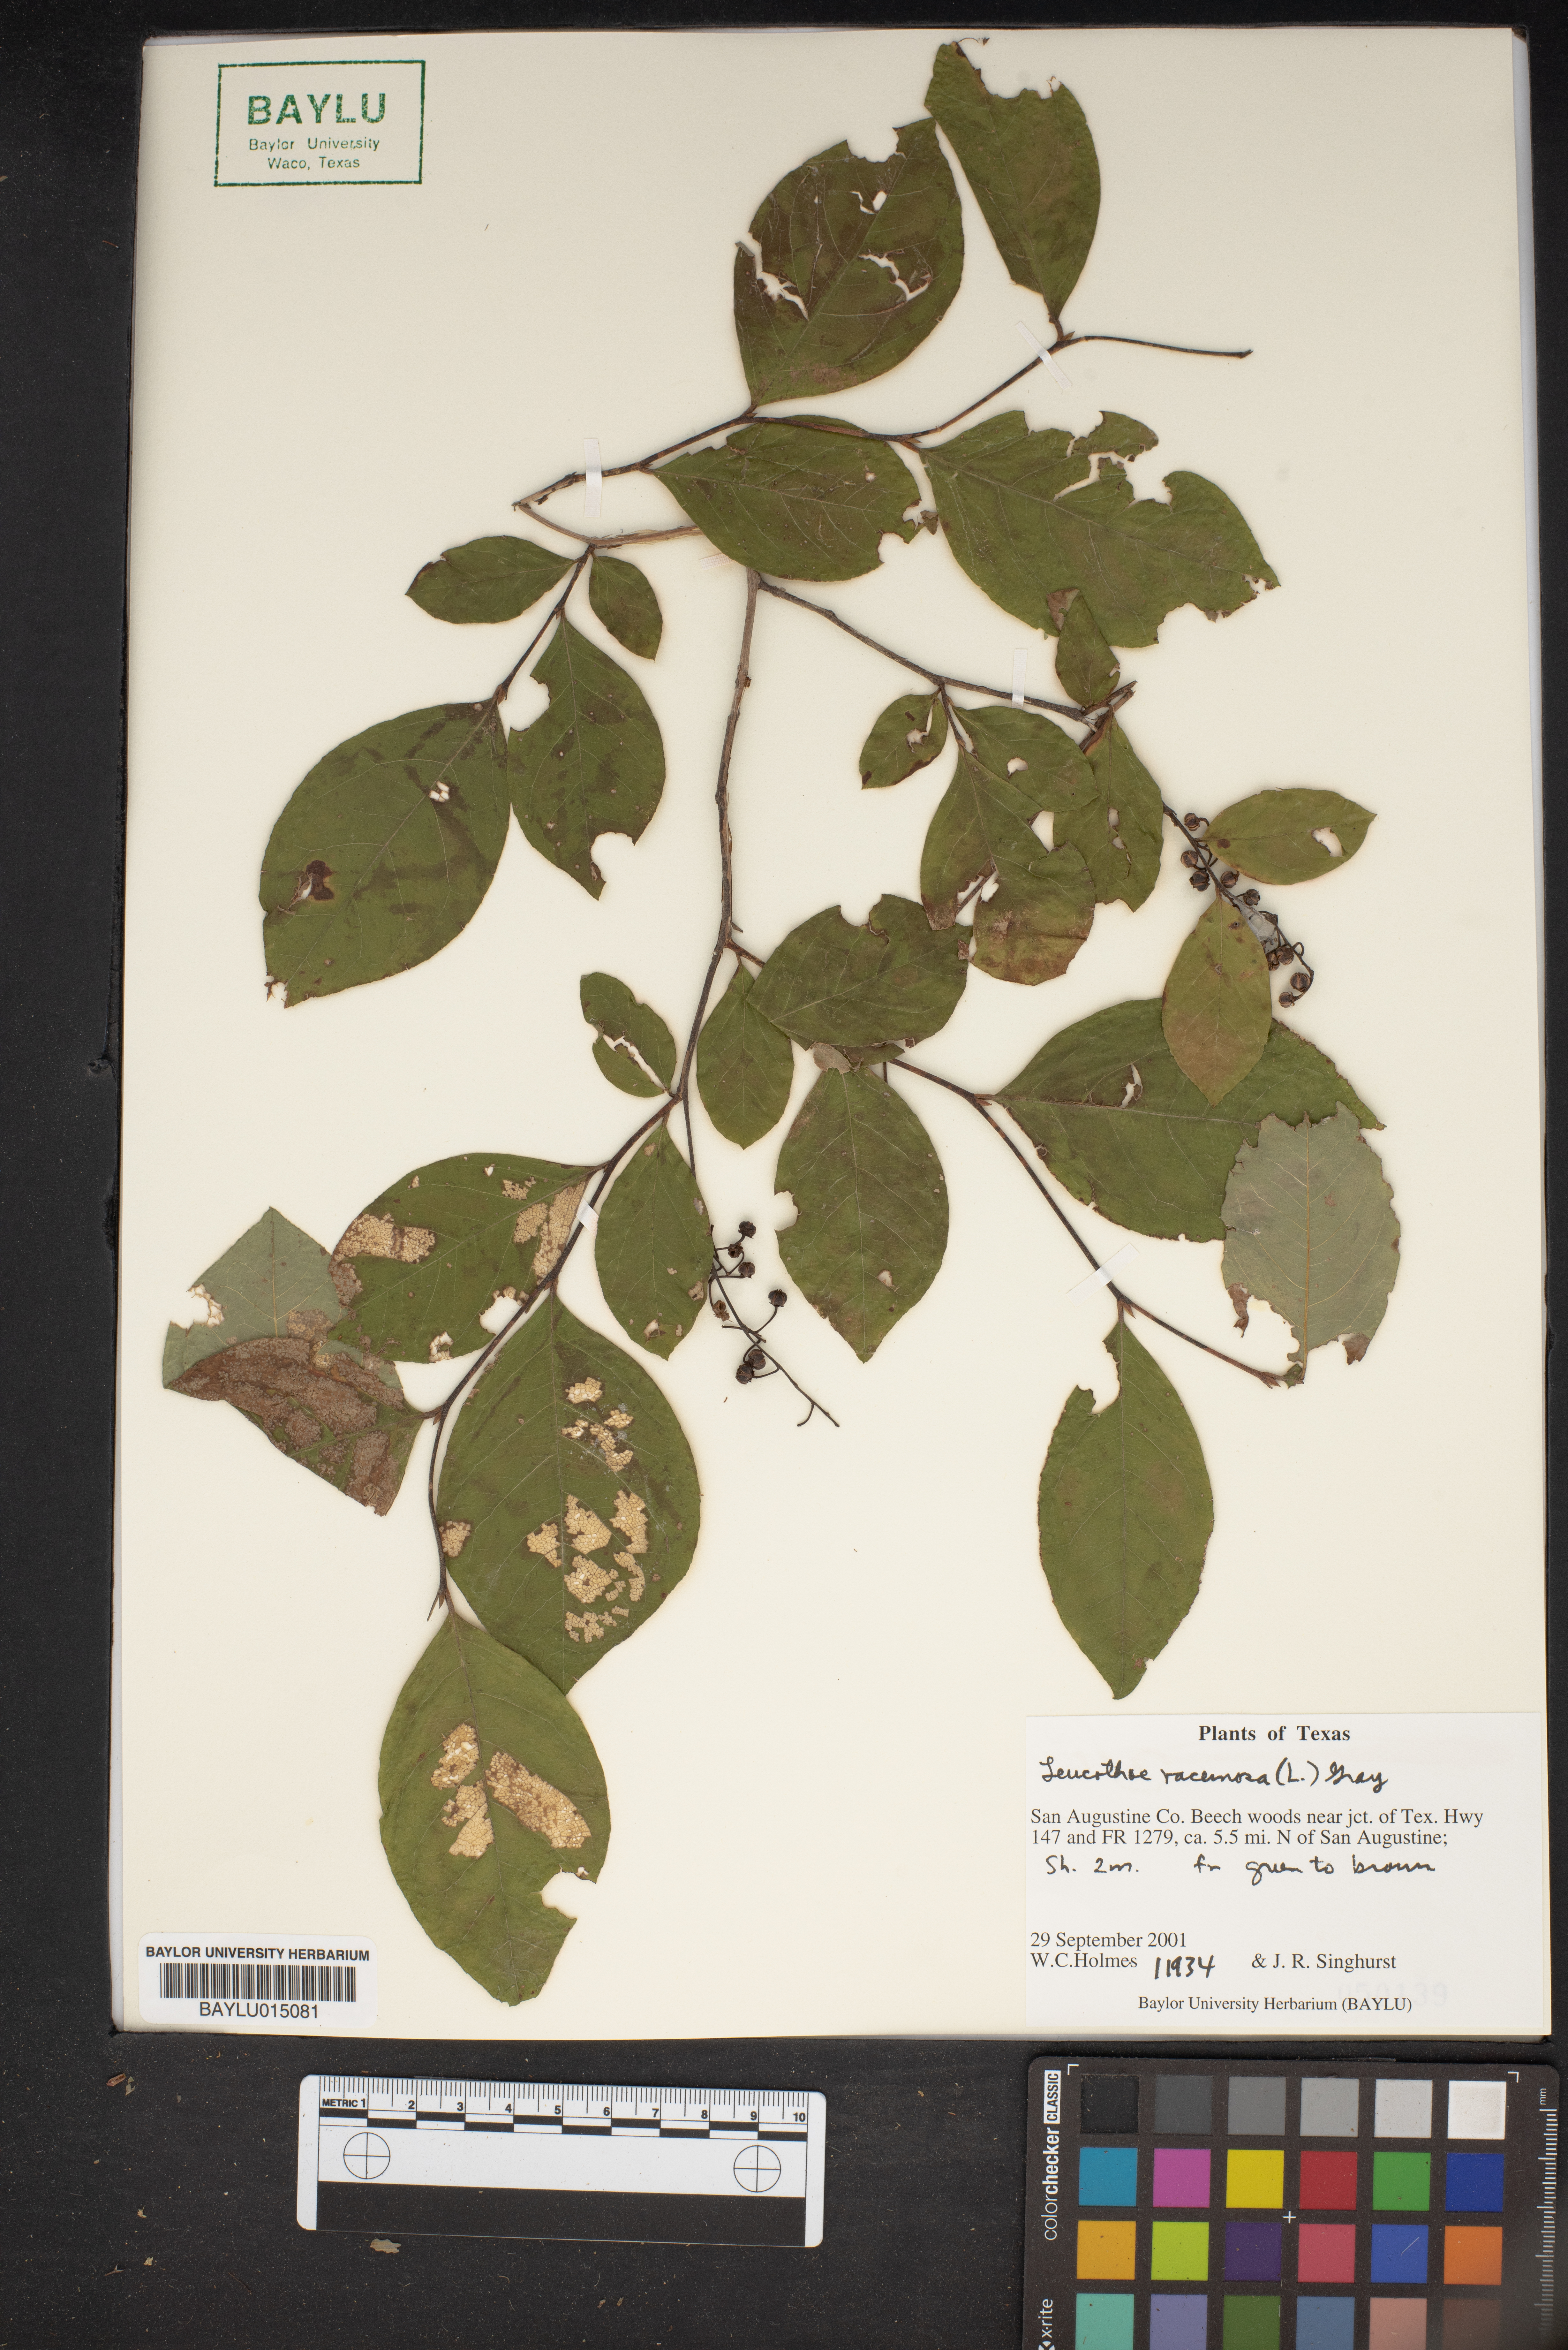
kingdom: Plantae
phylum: Tracheophyta
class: Magnoliopsida
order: Ericales
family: Ericaceae
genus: Eubotrys
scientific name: Eubotrys racemosa
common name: Fetterbush
